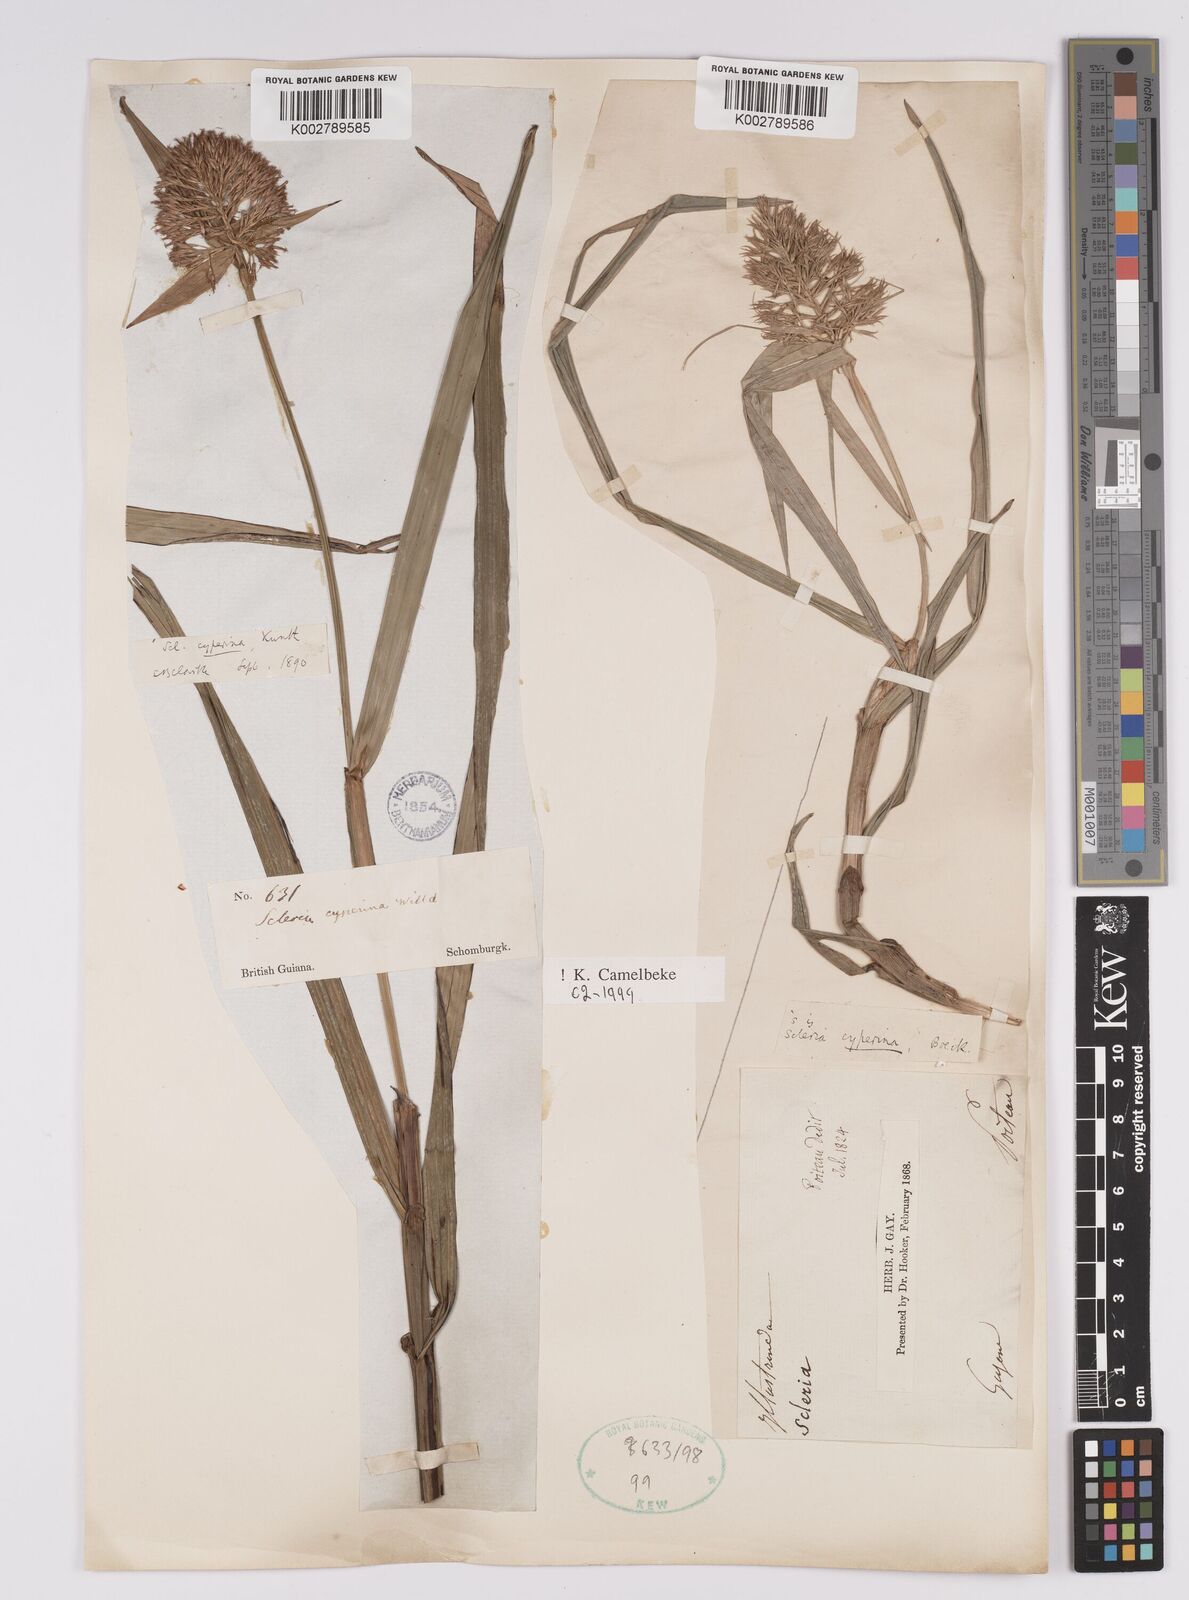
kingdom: Plantae
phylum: Tracheophyta
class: Liliopsida
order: Poales
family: Cyperaceae
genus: Scleria
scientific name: Scleria cyperina
